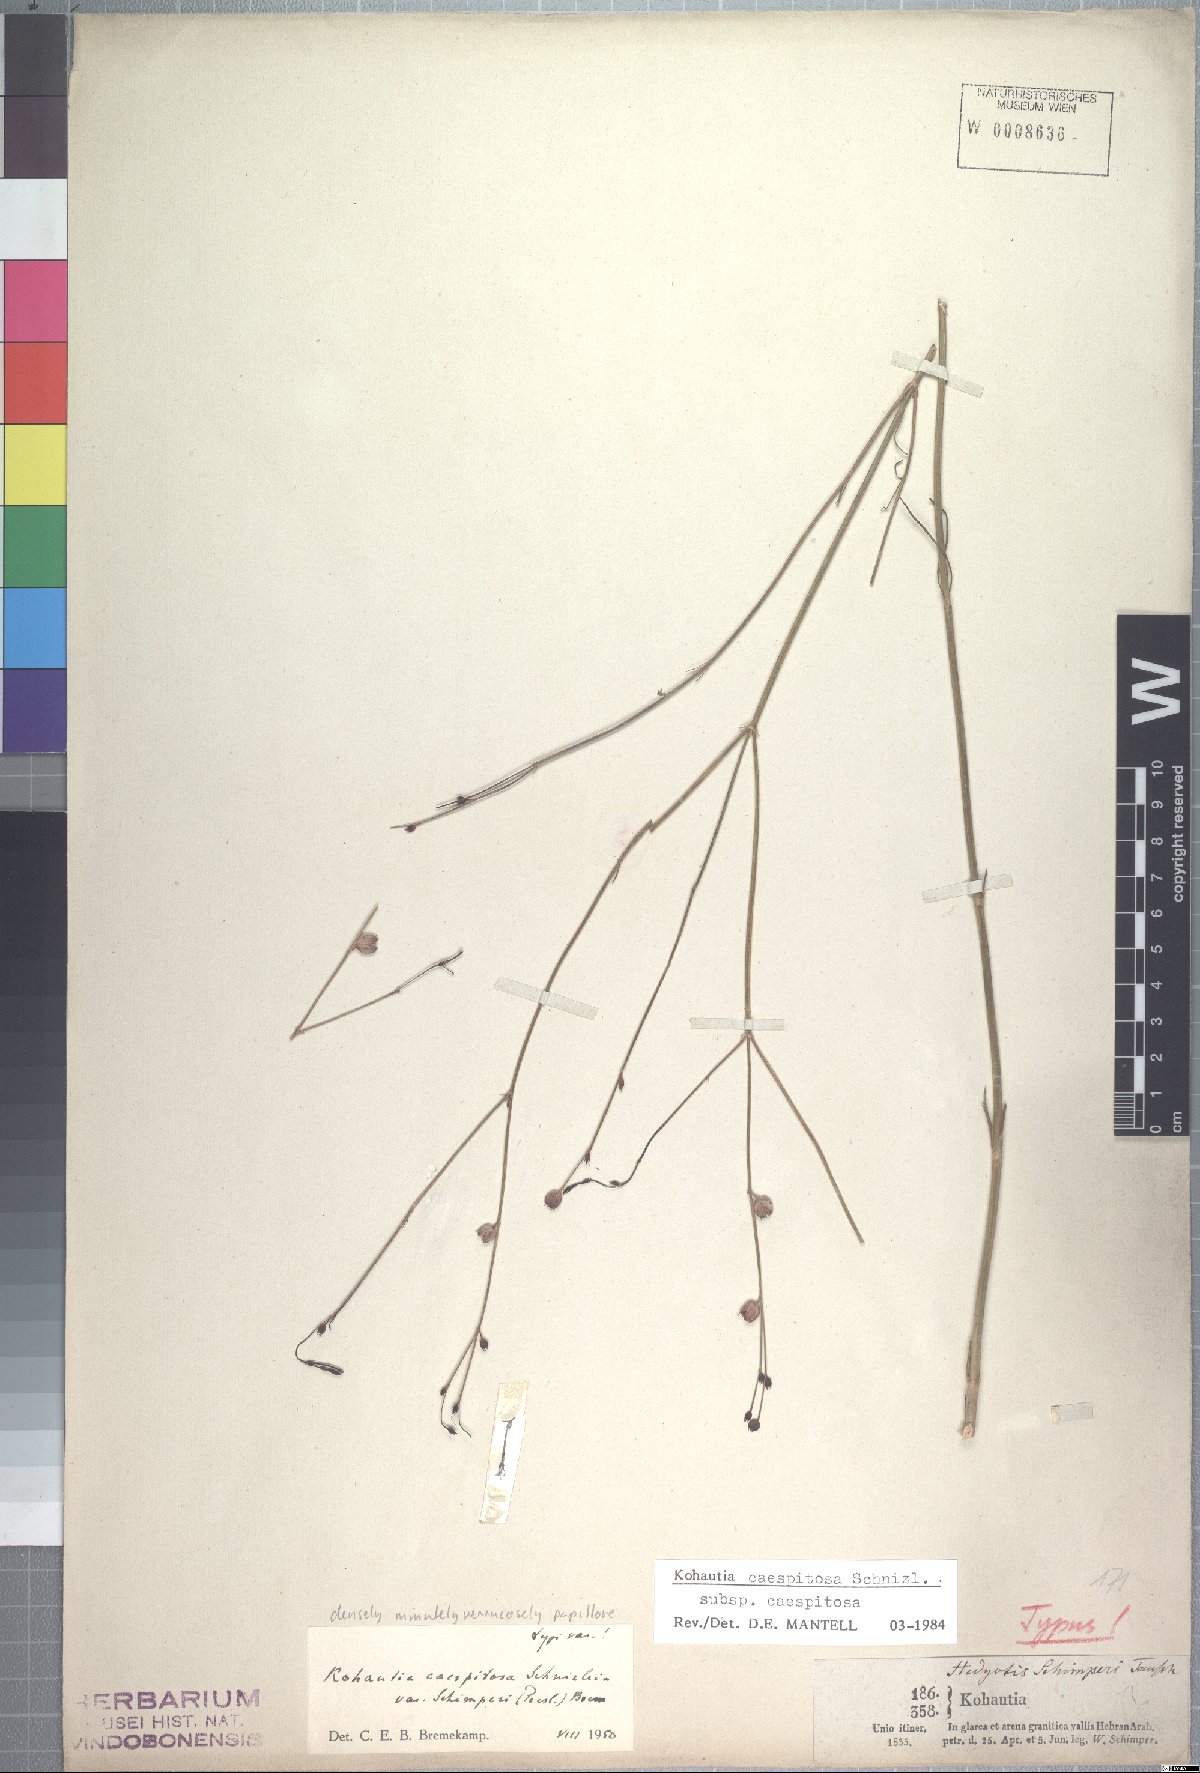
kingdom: Plantae
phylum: Tracheophyta
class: Magnoliopsida
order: Gentianales
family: Rubiaceae
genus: Kohautia
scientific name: Kohautia caespitosa
